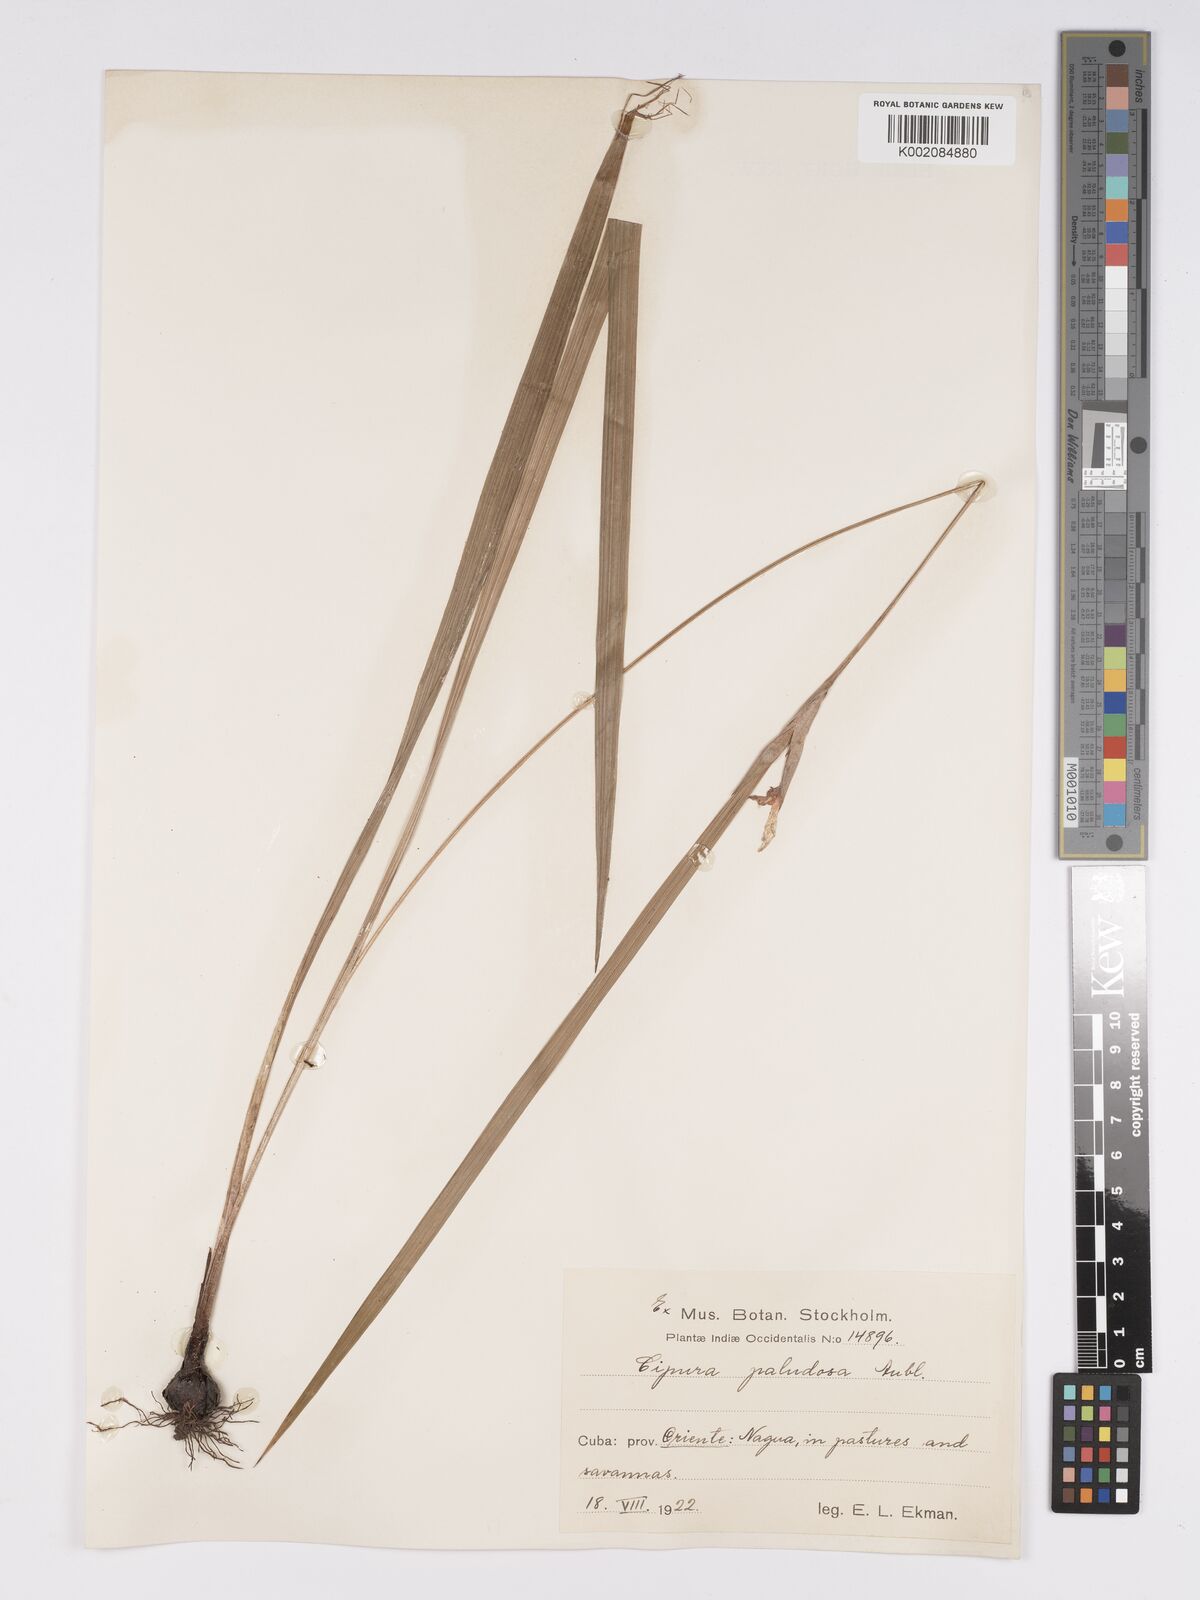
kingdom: Plantae
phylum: Tracheophyta
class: Liliopsida
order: Asparagales
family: Iridaceae
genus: Cipura
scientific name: Cipura paludosa
